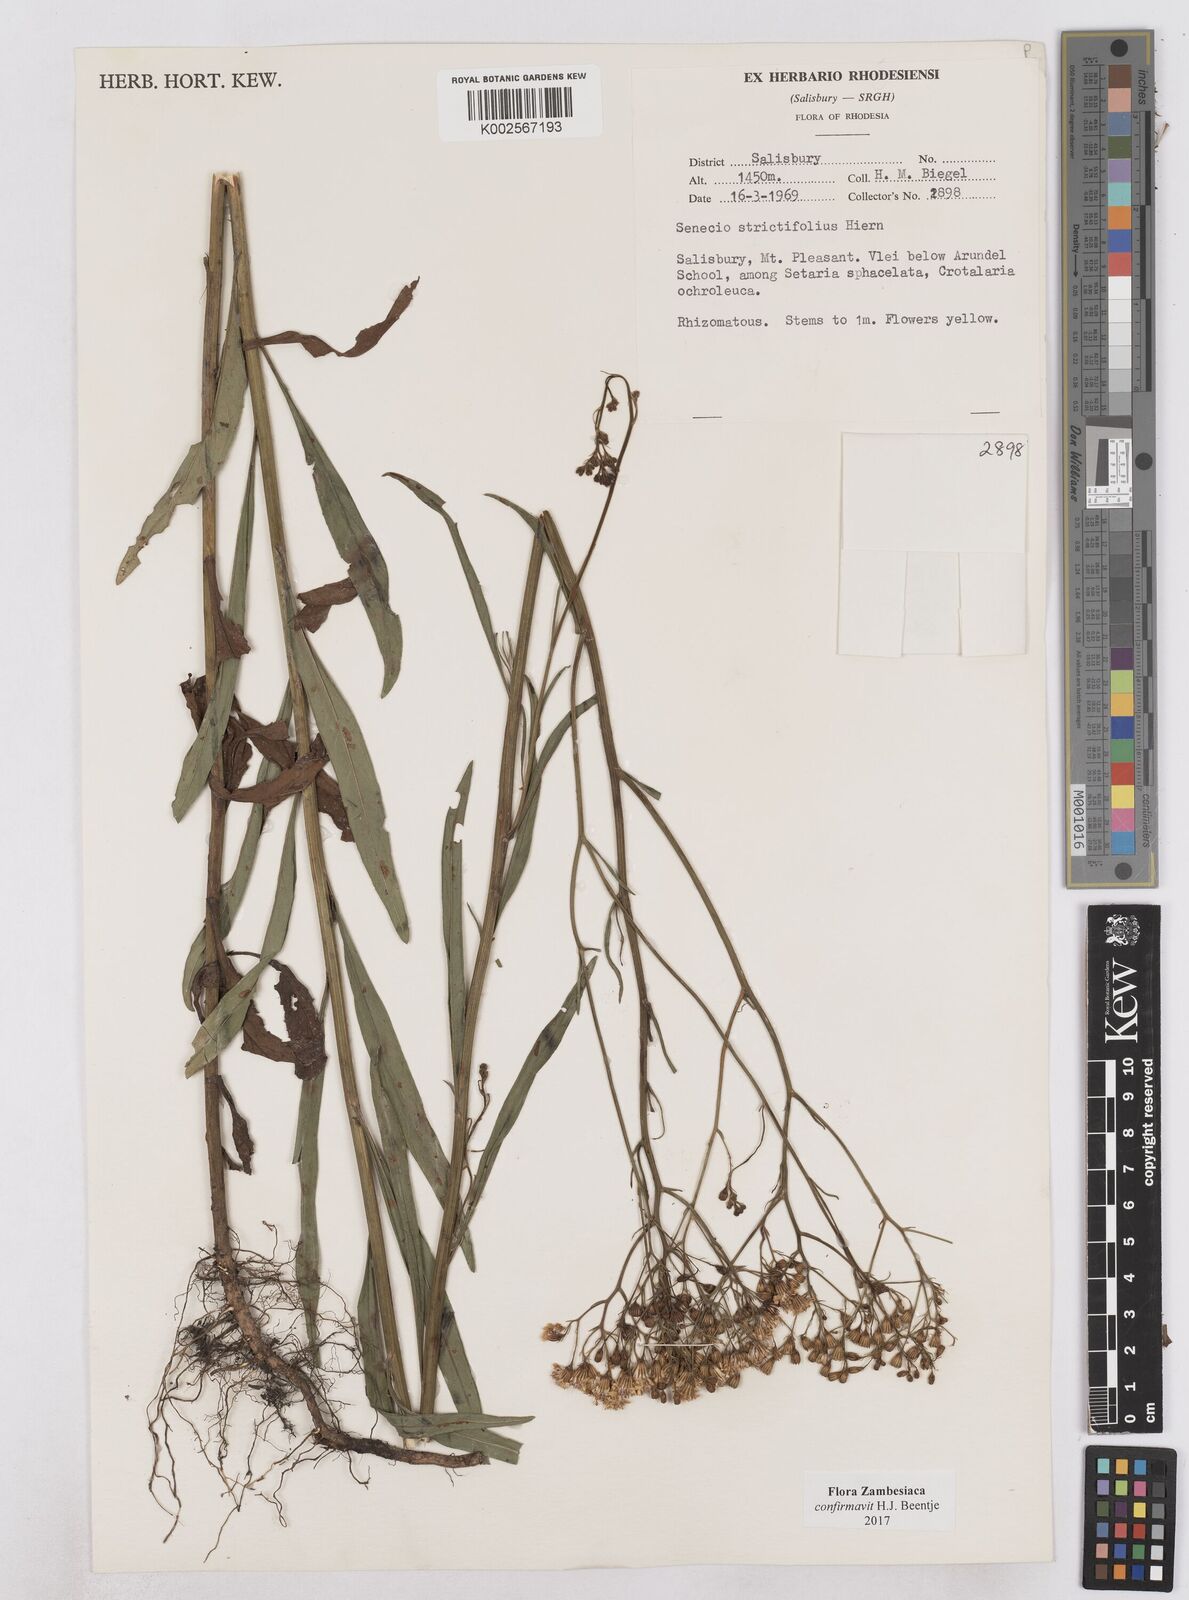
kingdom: Plantae
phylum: Tracheophyta
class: Magnoliopsida
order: Asterales
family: Asteraceae
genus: Senecio
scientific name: Senecio strictifolius
